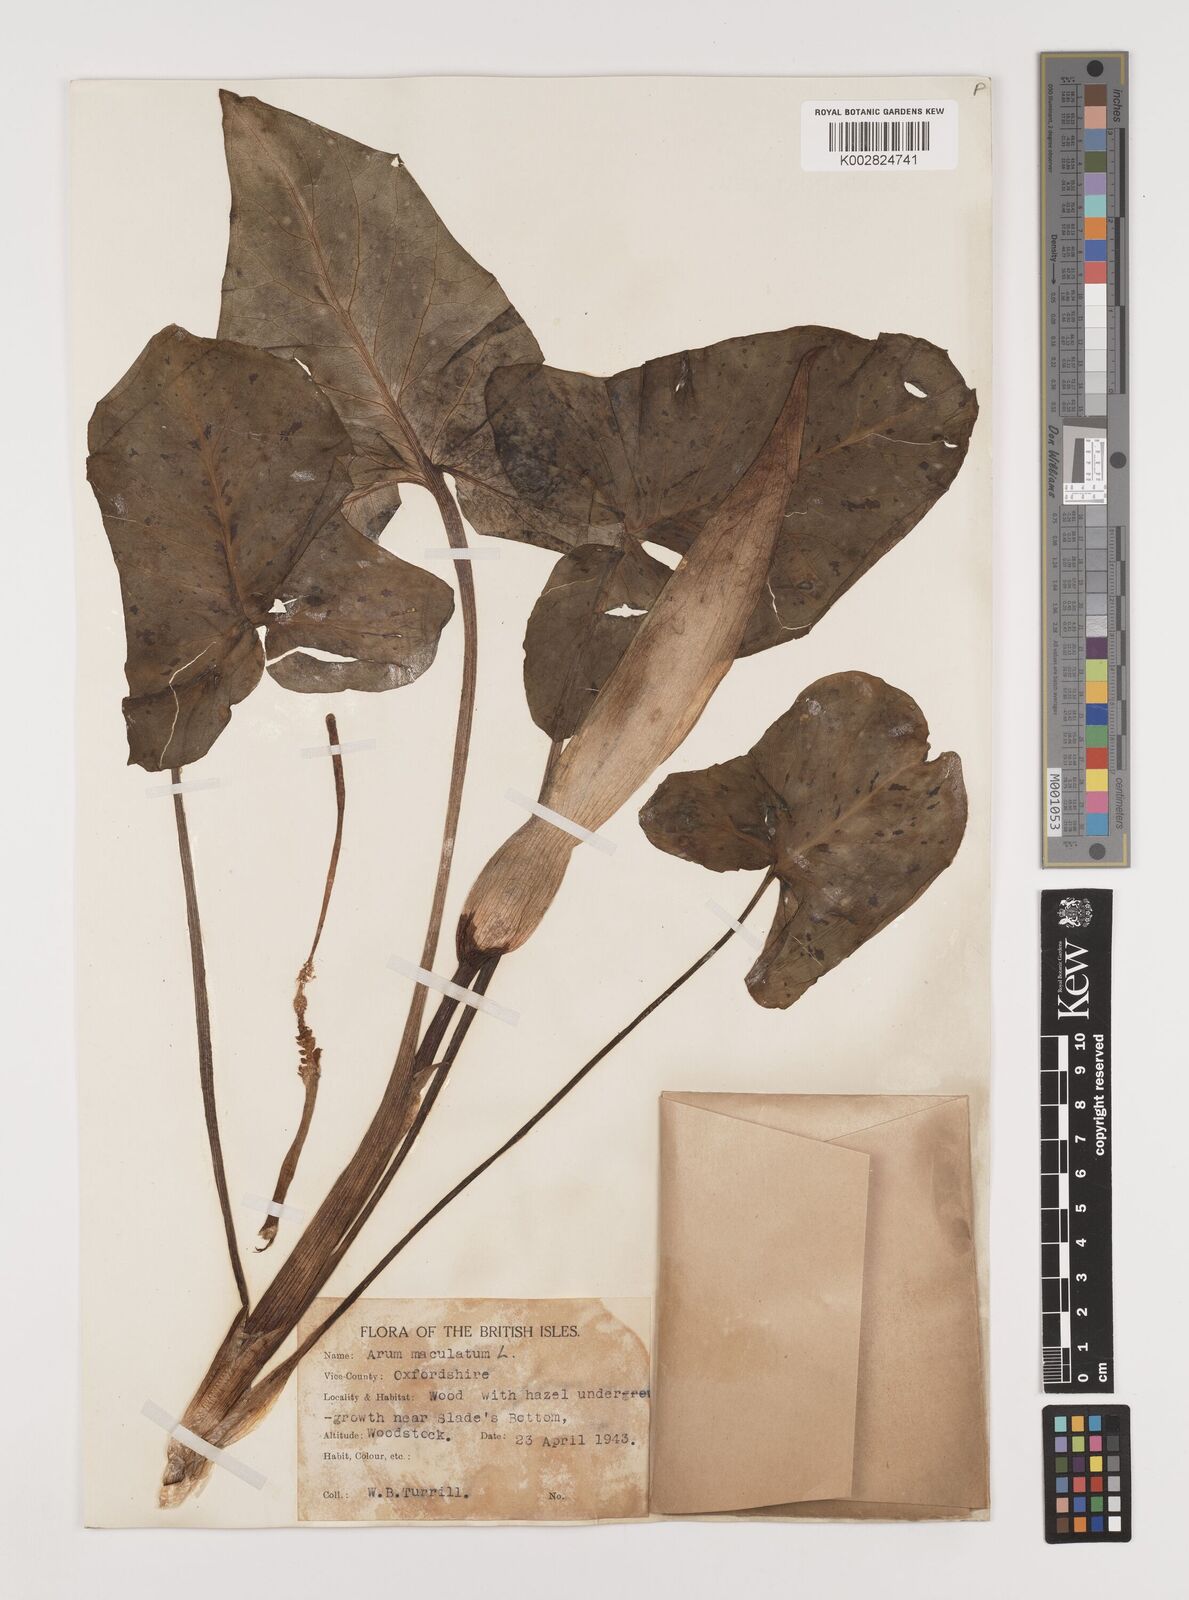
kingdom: Plantae
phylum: Tracheophyta
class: Liliopsida
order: Alismatales
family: Araceae
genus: Arum
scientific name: Arum maculatum
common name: Lords-and-ladies
